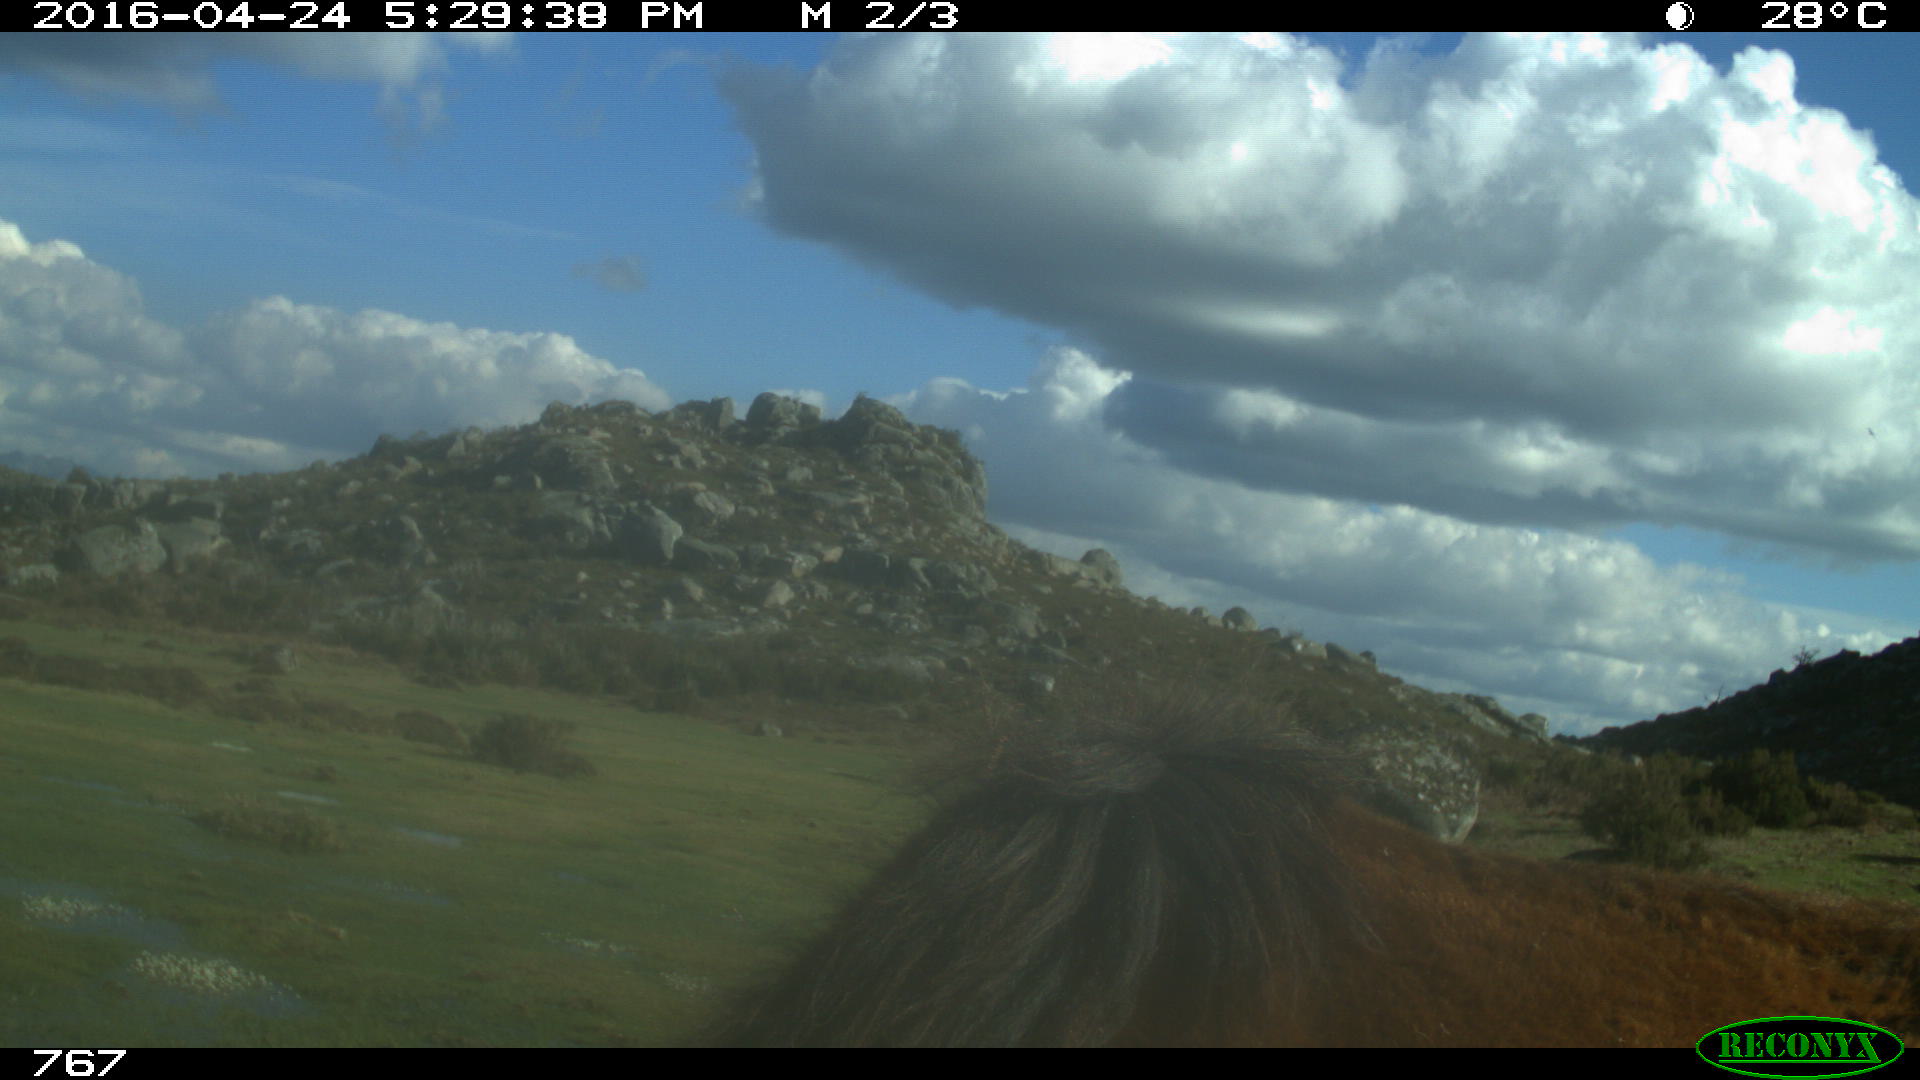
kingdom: Animalia
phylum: Chordata
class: Mammalia
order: Perissodactyla
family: Equidae
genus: Equus
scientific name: Equus caballus
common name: Horse
